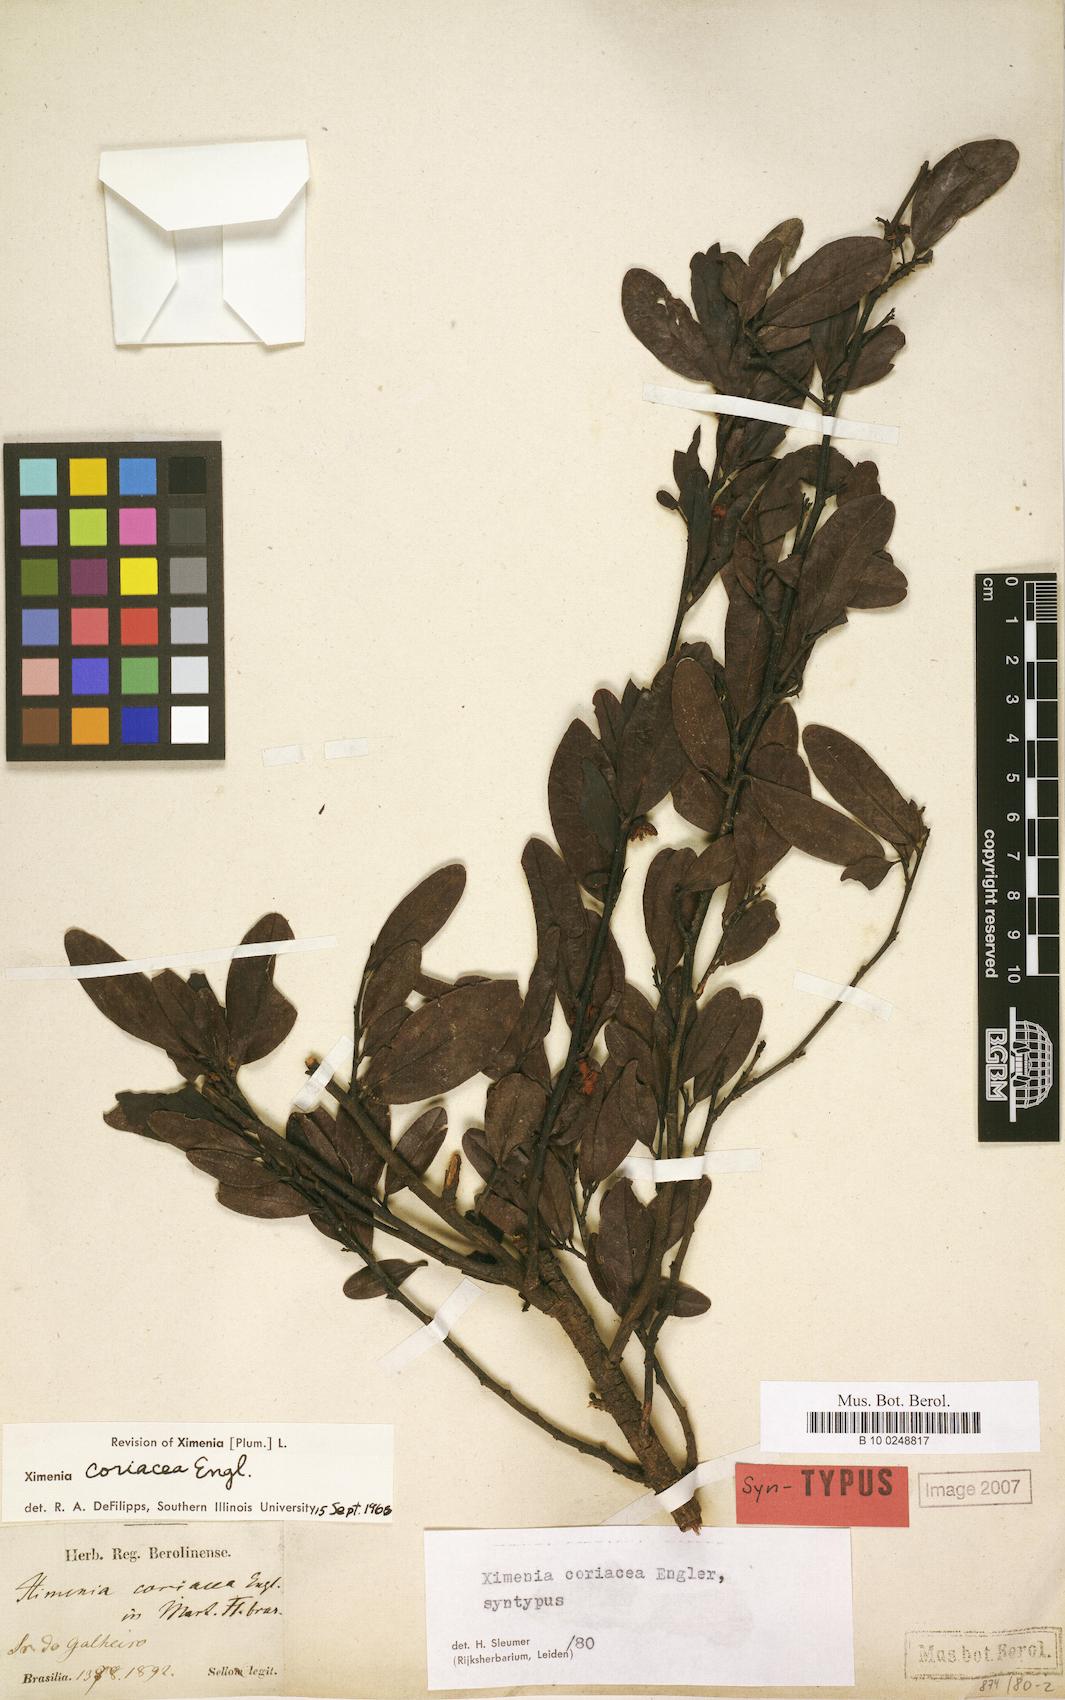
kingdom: Plantae
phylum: Tracheophyta
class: Magnoliopsida
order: Santalales
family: Ximeniaceae
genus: Ximenia
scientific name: Ximenia coriacea
